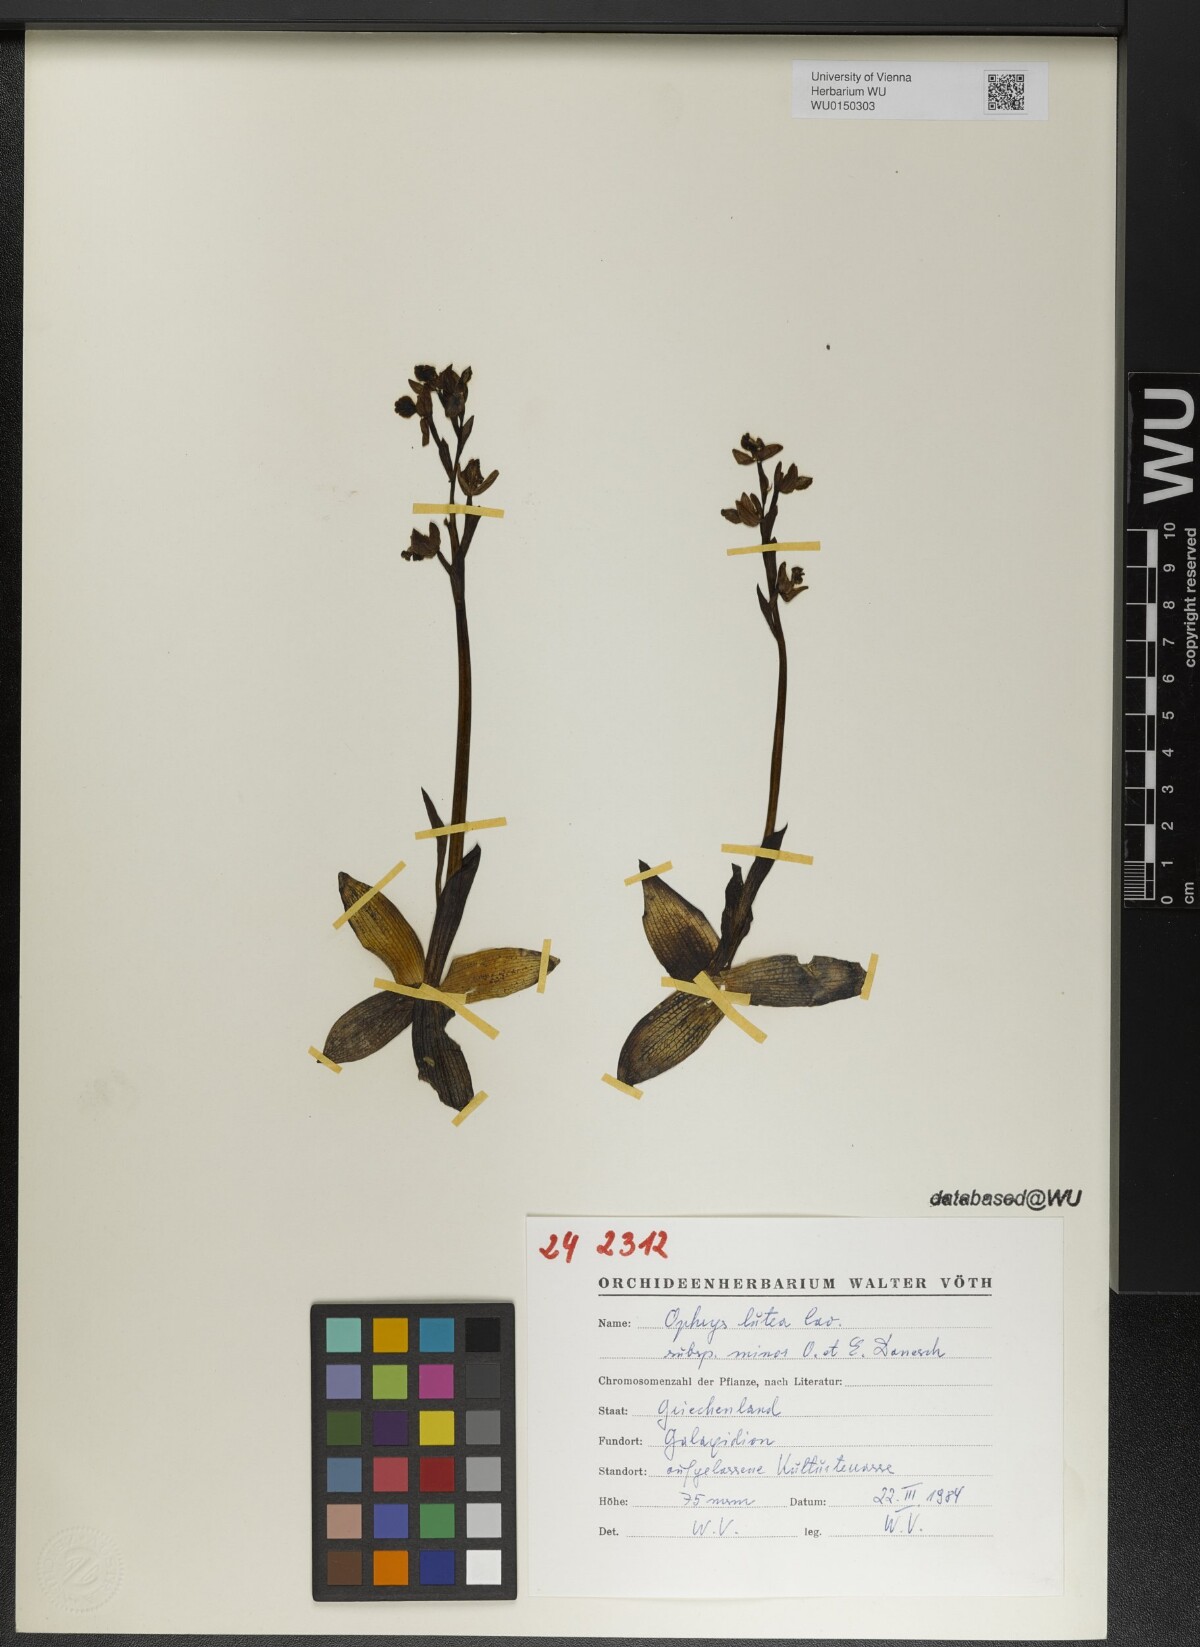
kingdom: Plantae
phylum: Tracheophyta
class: Liliopsida
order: Asparagales
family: Orchidaceae
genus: Ophrys
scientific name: Ophrys lutea
